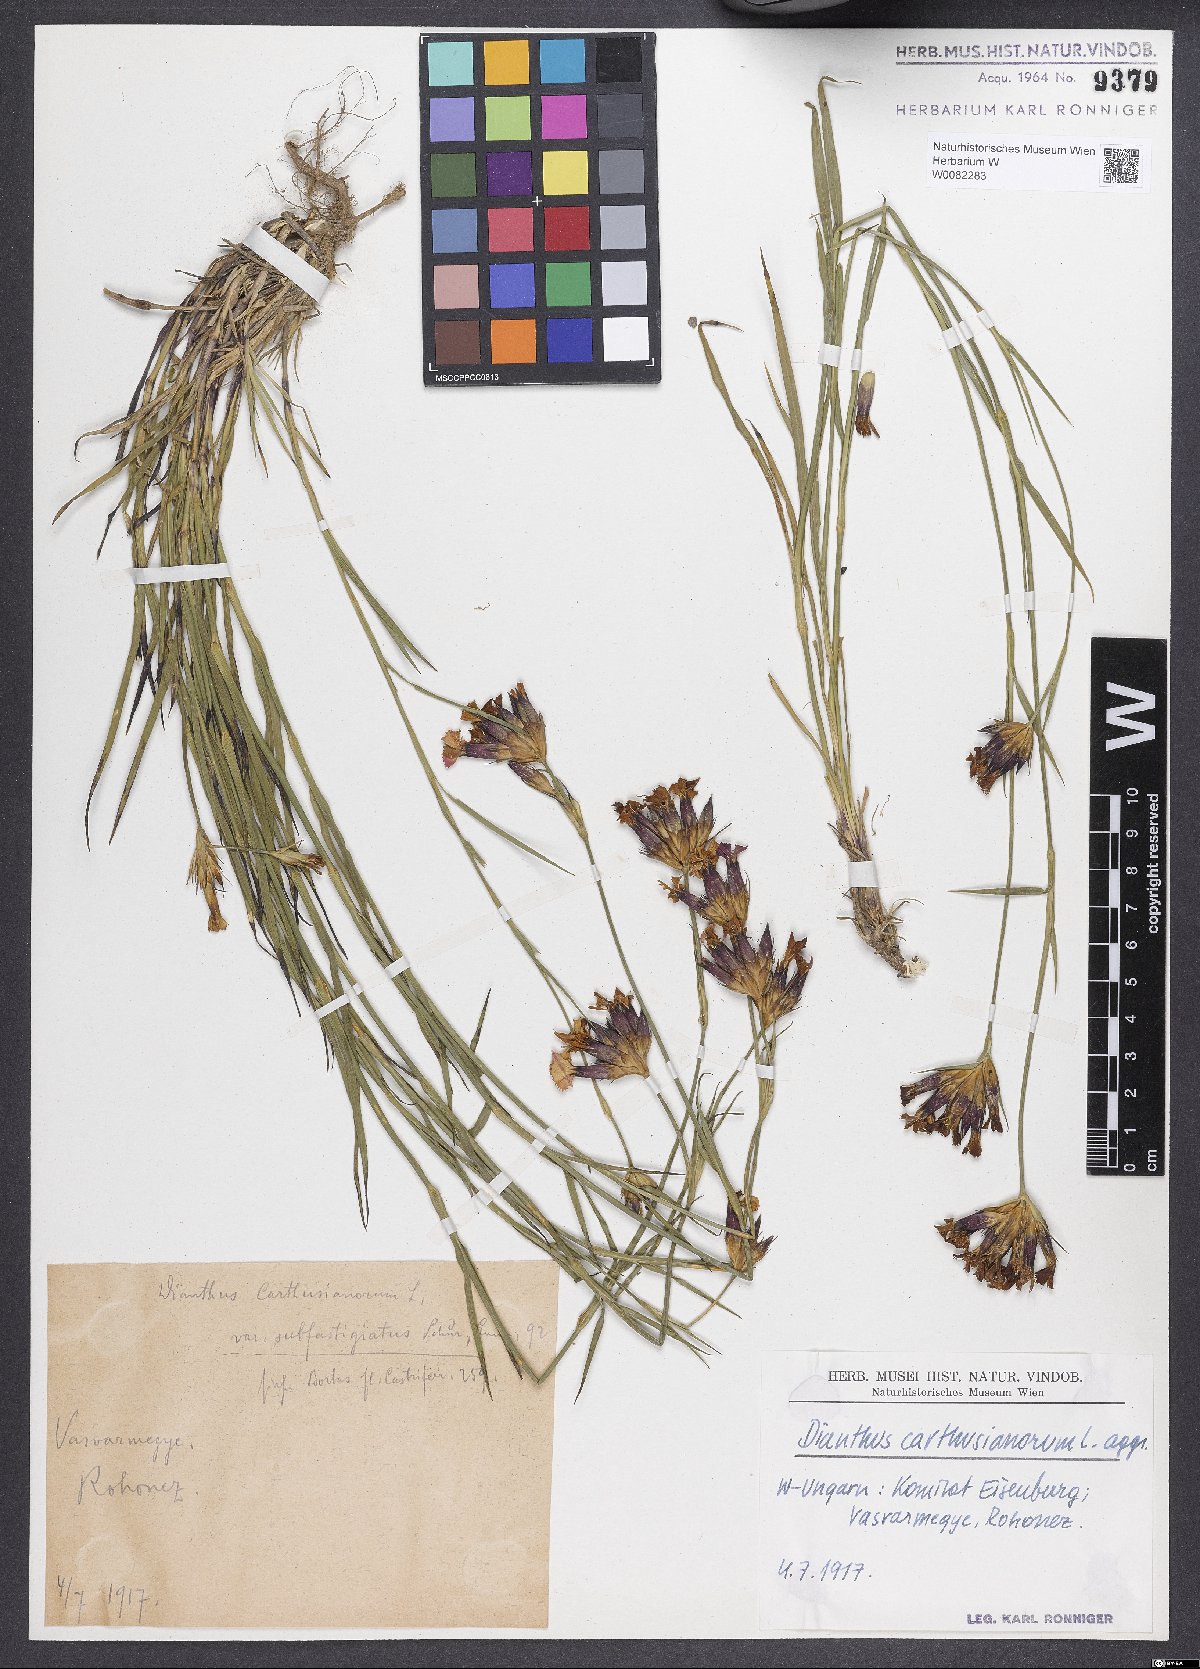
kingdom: Plantae
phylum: Tracheophyta
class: Magnoliopsida
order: Caryophyllales
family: Caryophyllaceae
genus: Dianthus
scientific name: Dianthus carthusianorum
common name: Carthusian pink
